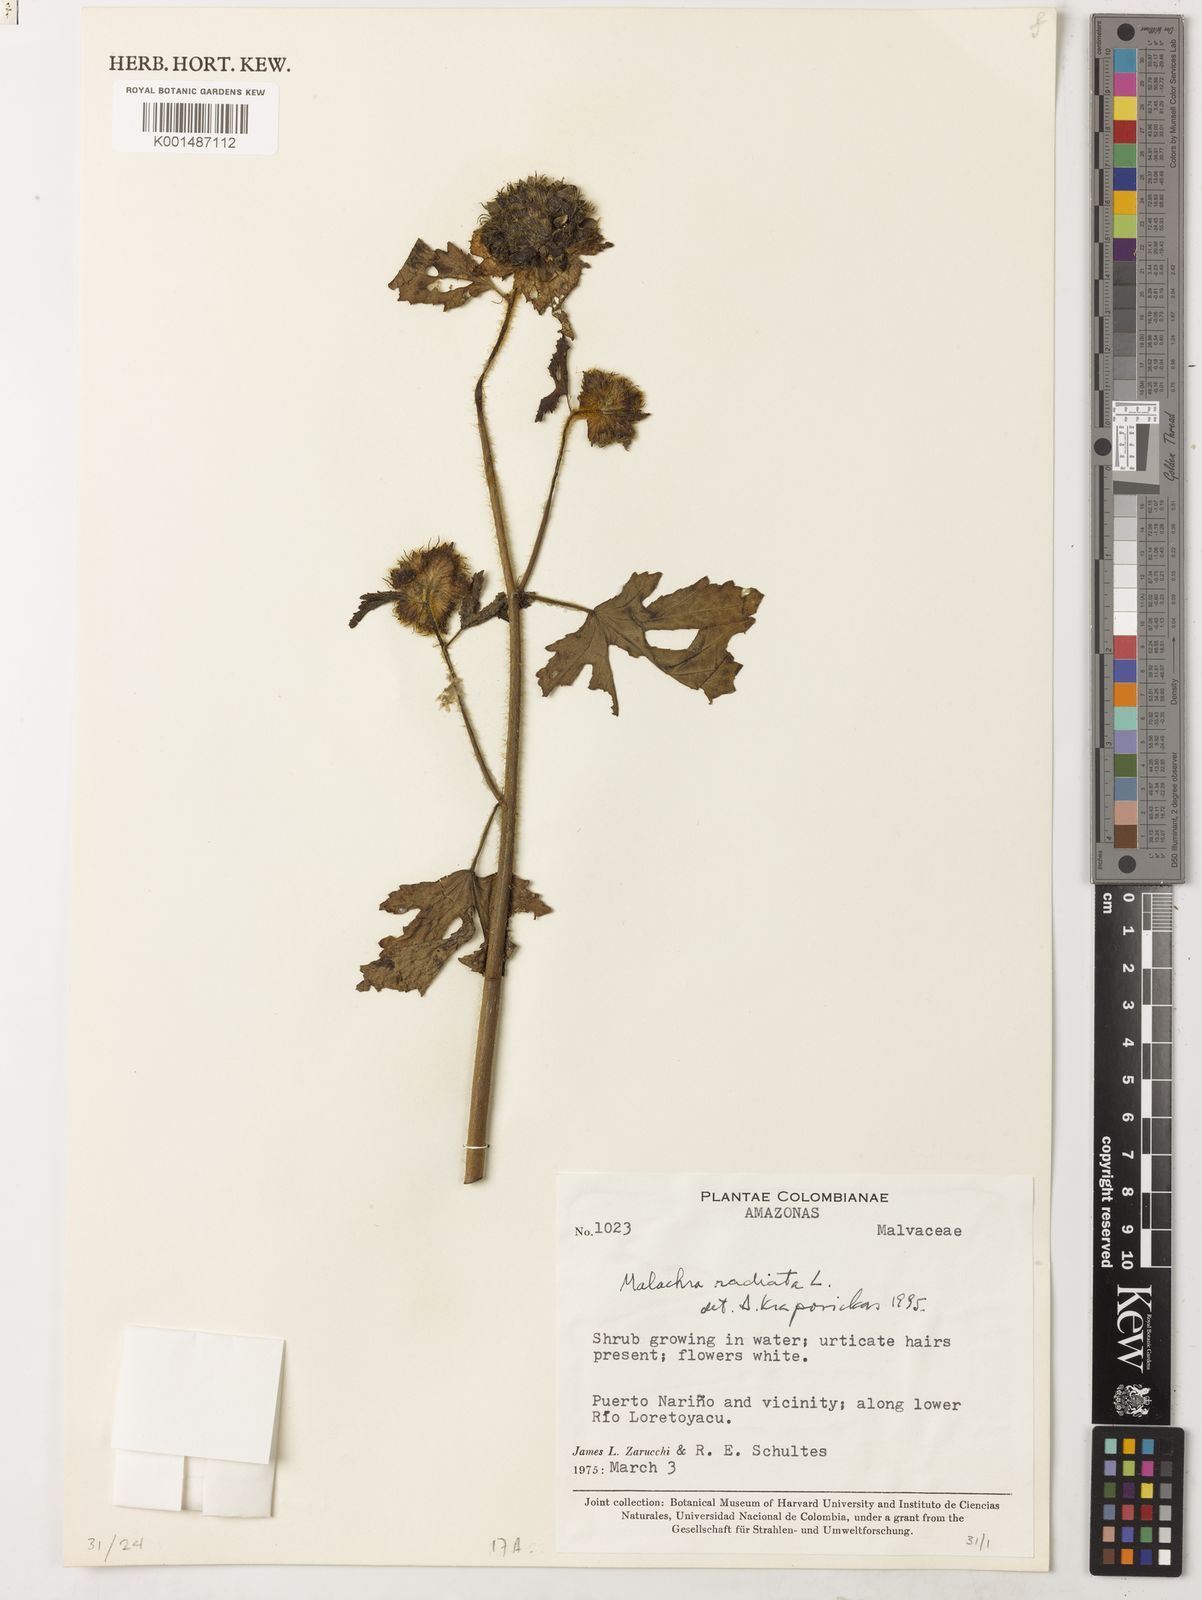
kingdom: Plantae
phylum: Tracheophyta
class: Magnoliopsida
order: Malvales
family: Malvaceae
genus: Malachra
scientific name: Malachra radiata
